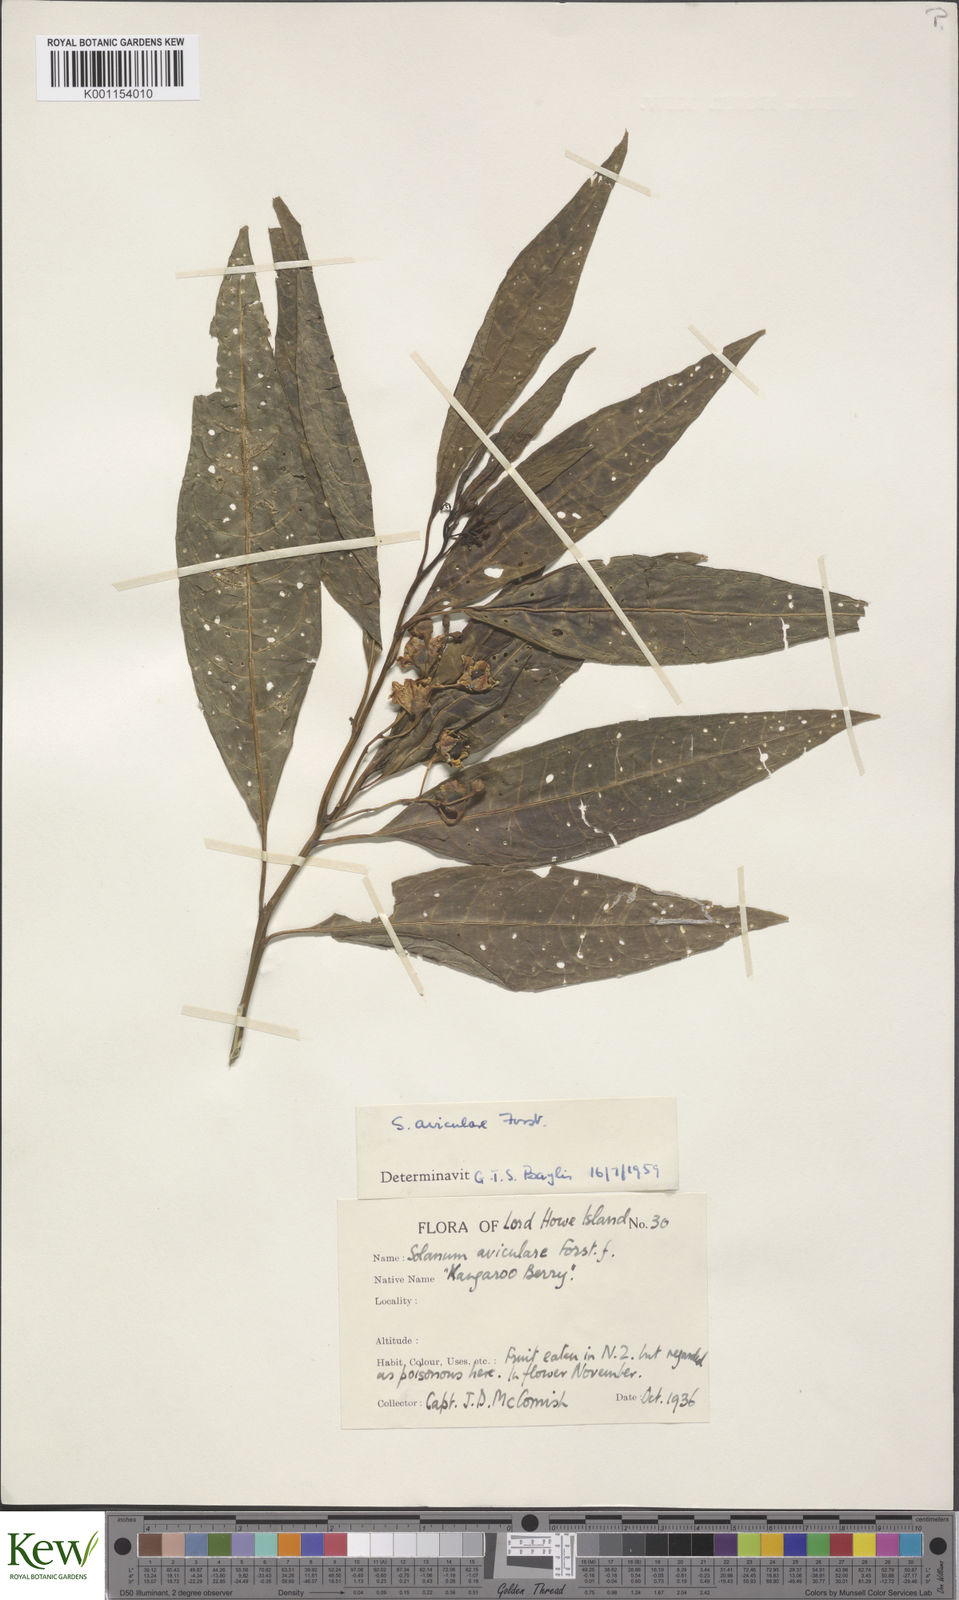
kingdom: Plantae
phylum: Tracheophyta
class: Magnoliopsida
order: Solanales
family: Solanaceae
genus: Solanum
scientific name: Solanum aviculare
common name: New zealand nightshade
